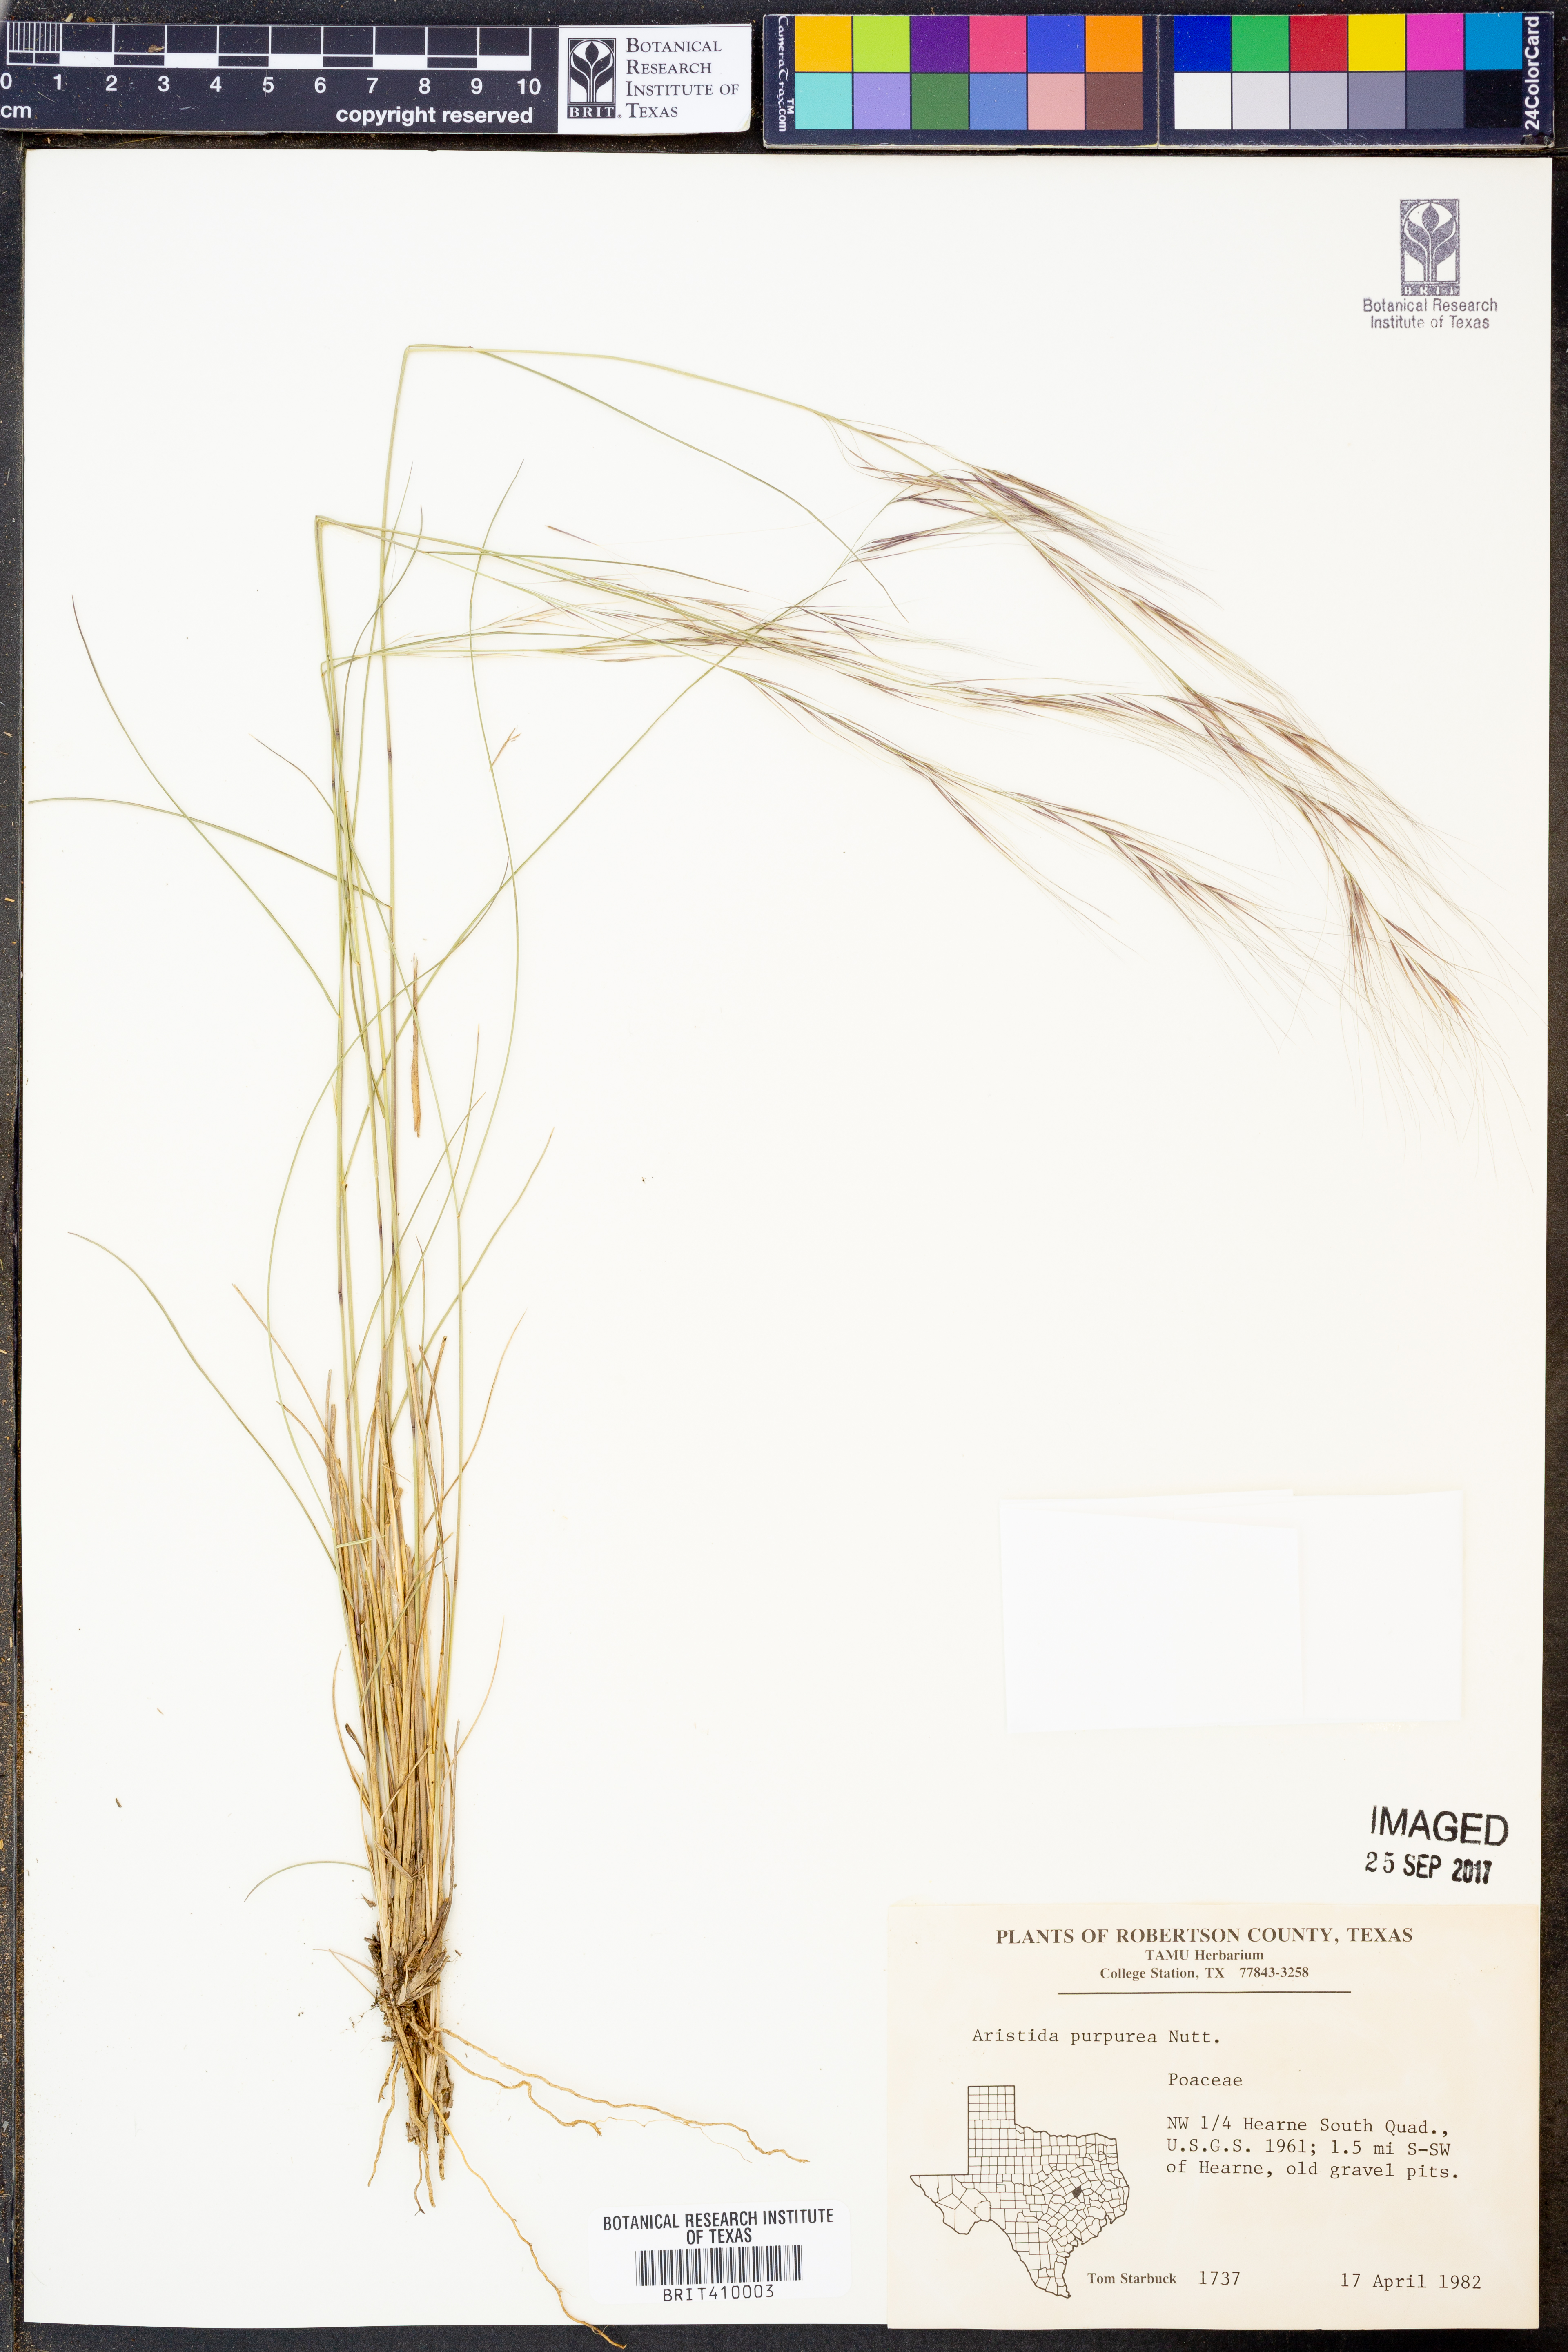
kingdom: Plantae
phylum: Tracheophyta
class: Liliopsida
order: Poales
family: Poaceae
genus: Aristida
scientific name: Aristida purpurea
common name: Purple threeawn
